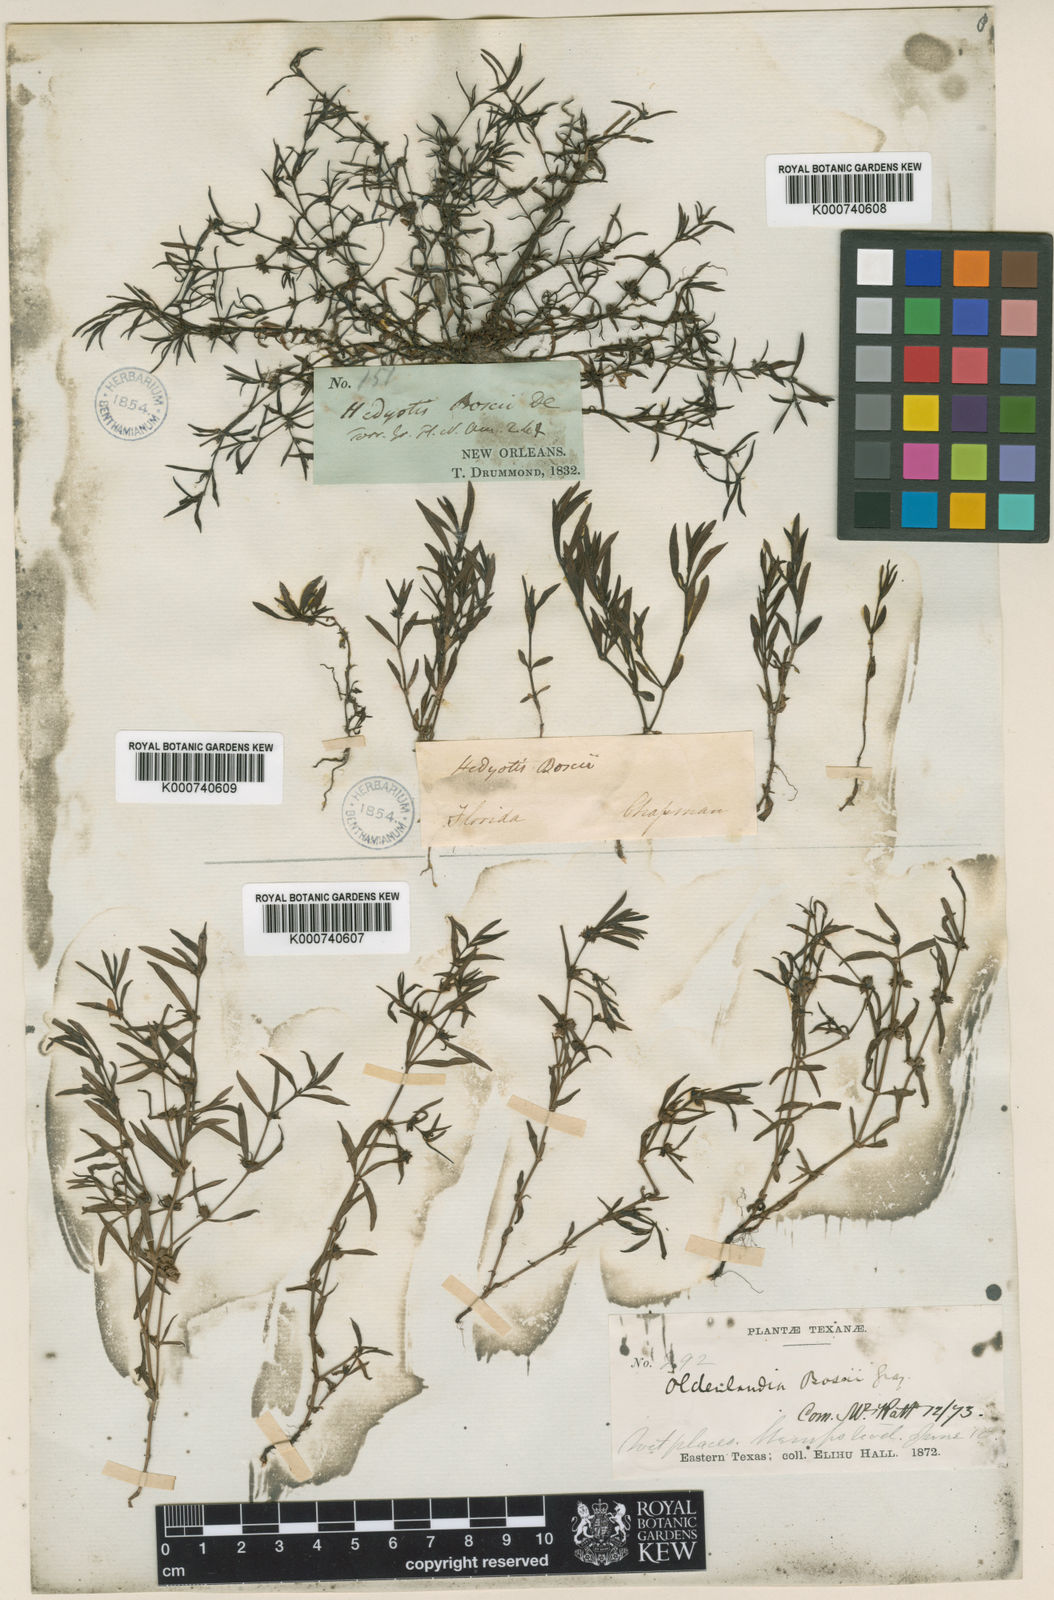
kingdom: Plantae
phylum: Tracheophyta
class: Magnoliopsida
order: Gentianales
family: Rubiaceae
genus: Oldenlandia
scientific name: Oldenlandia boscii
